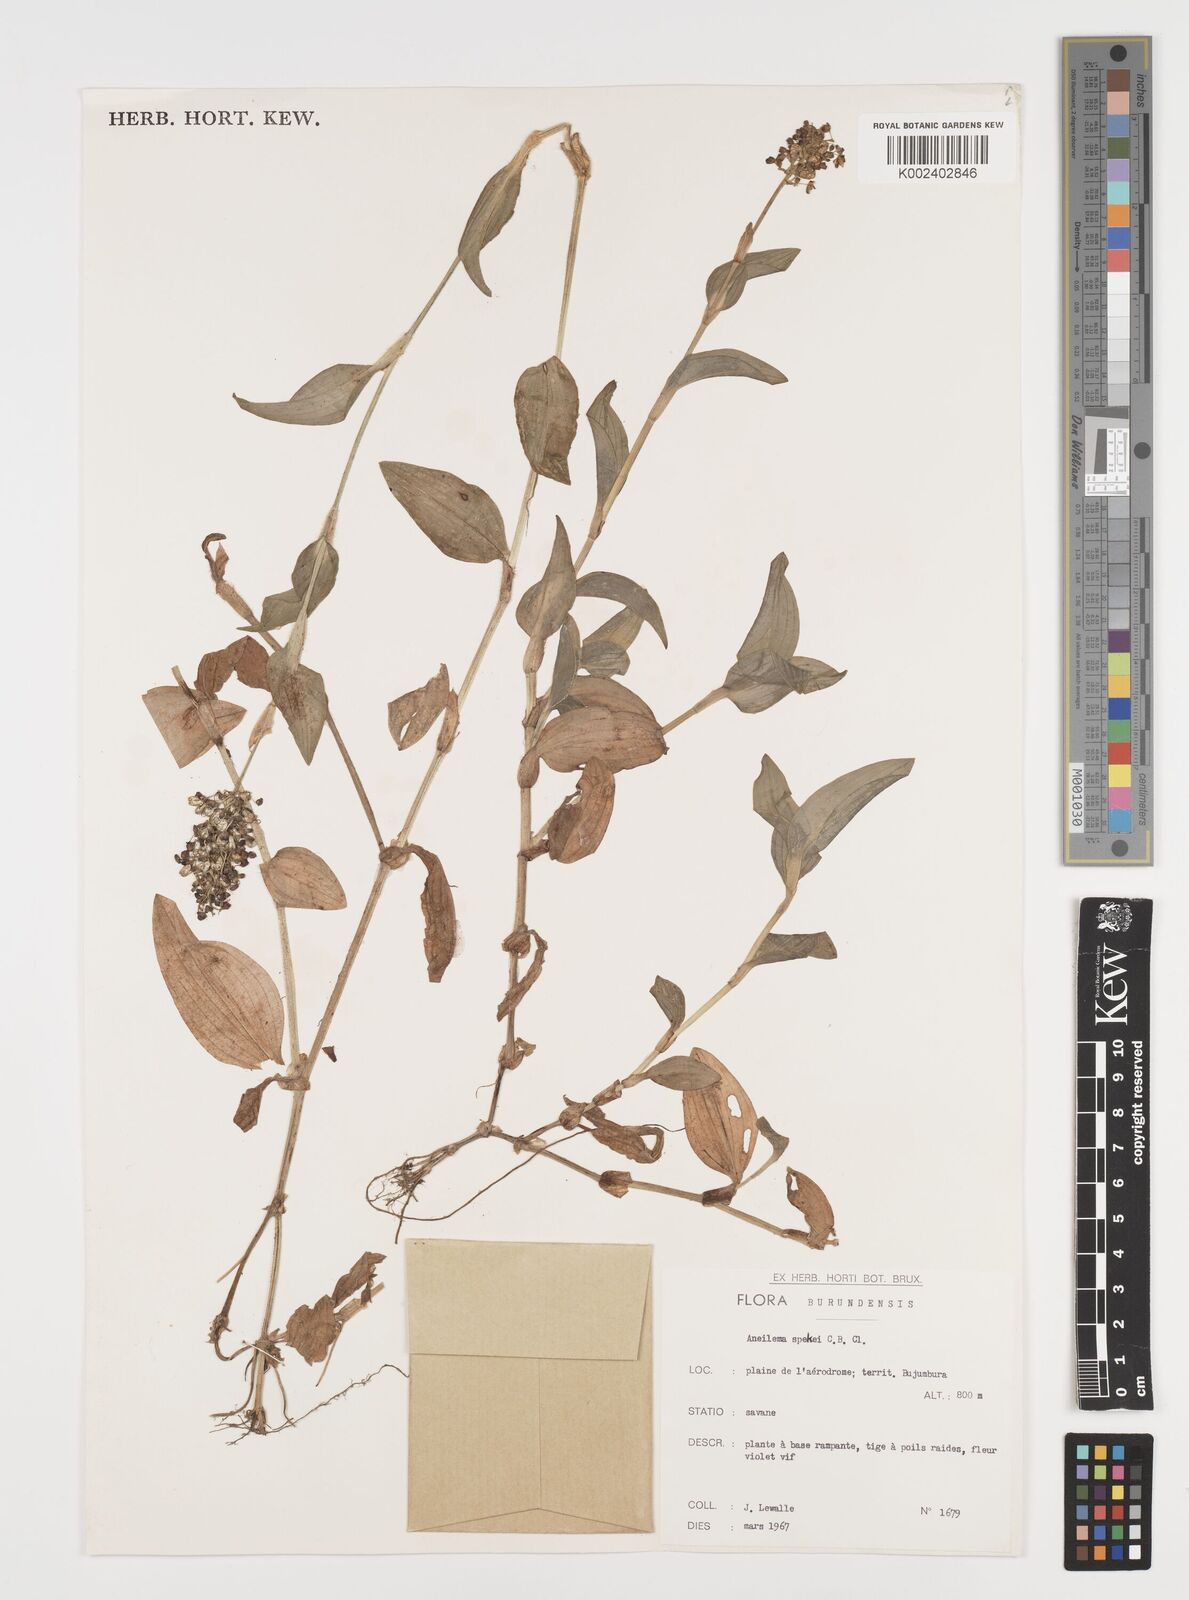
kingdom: Plantae
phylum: Tracheophyta
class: Liliopsida
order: Commelinales
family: Commelinaceae
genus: Aneilema
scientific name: Aneilema spekei
